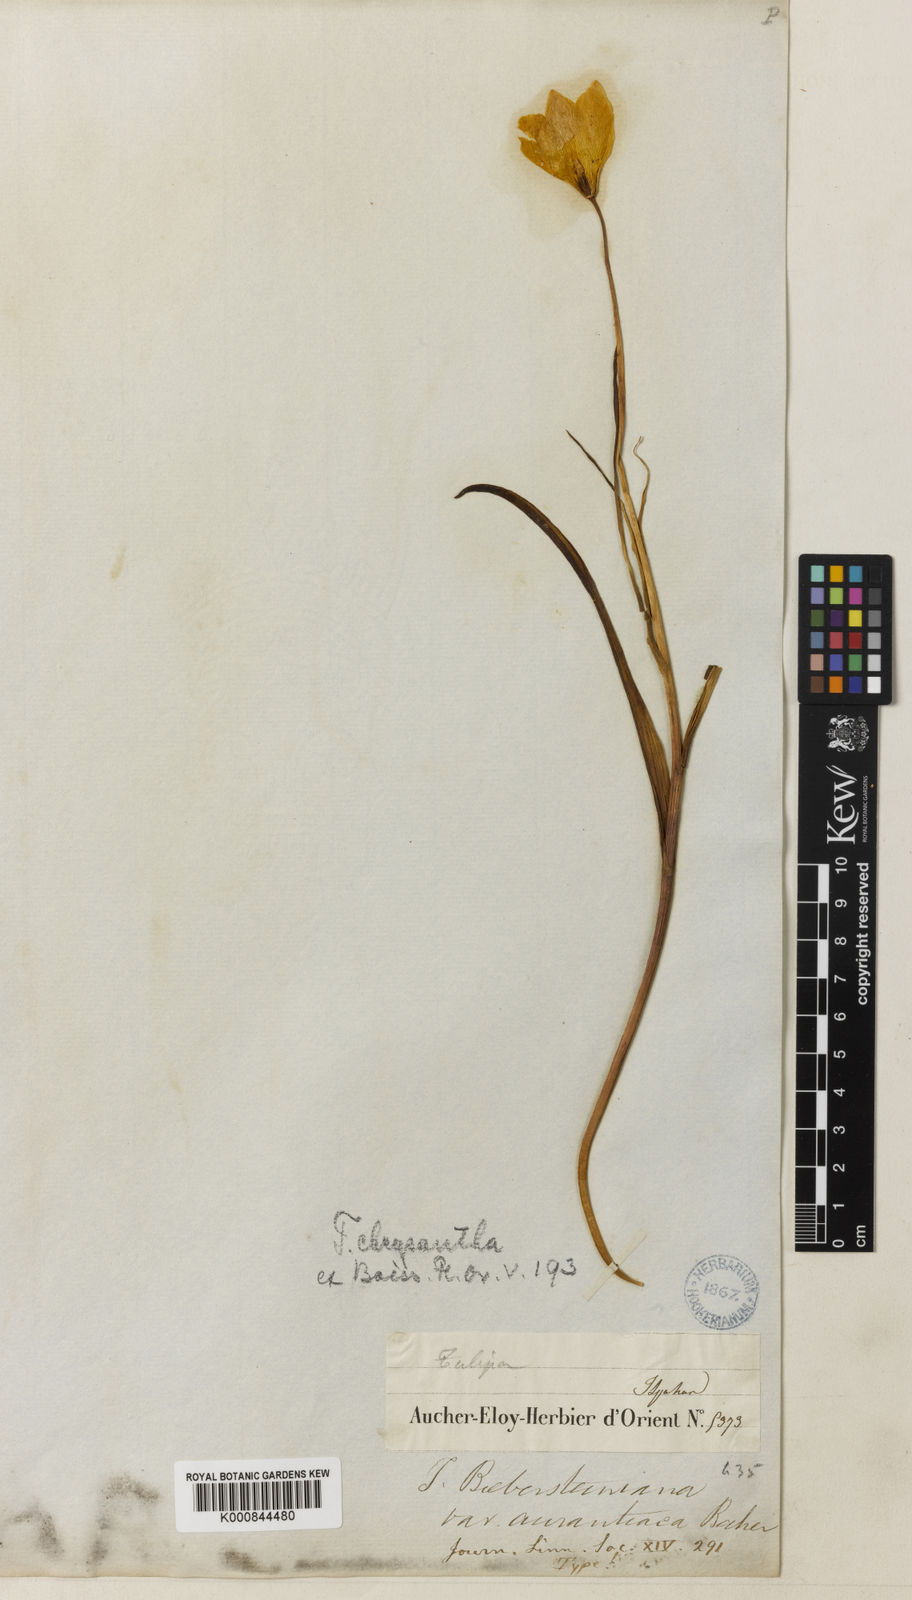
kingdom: Plantae
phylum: Tracheophyta
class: Liliopsida
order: Liliales
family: Liliaceae
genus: Tulipa
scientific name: Tulipa montana
